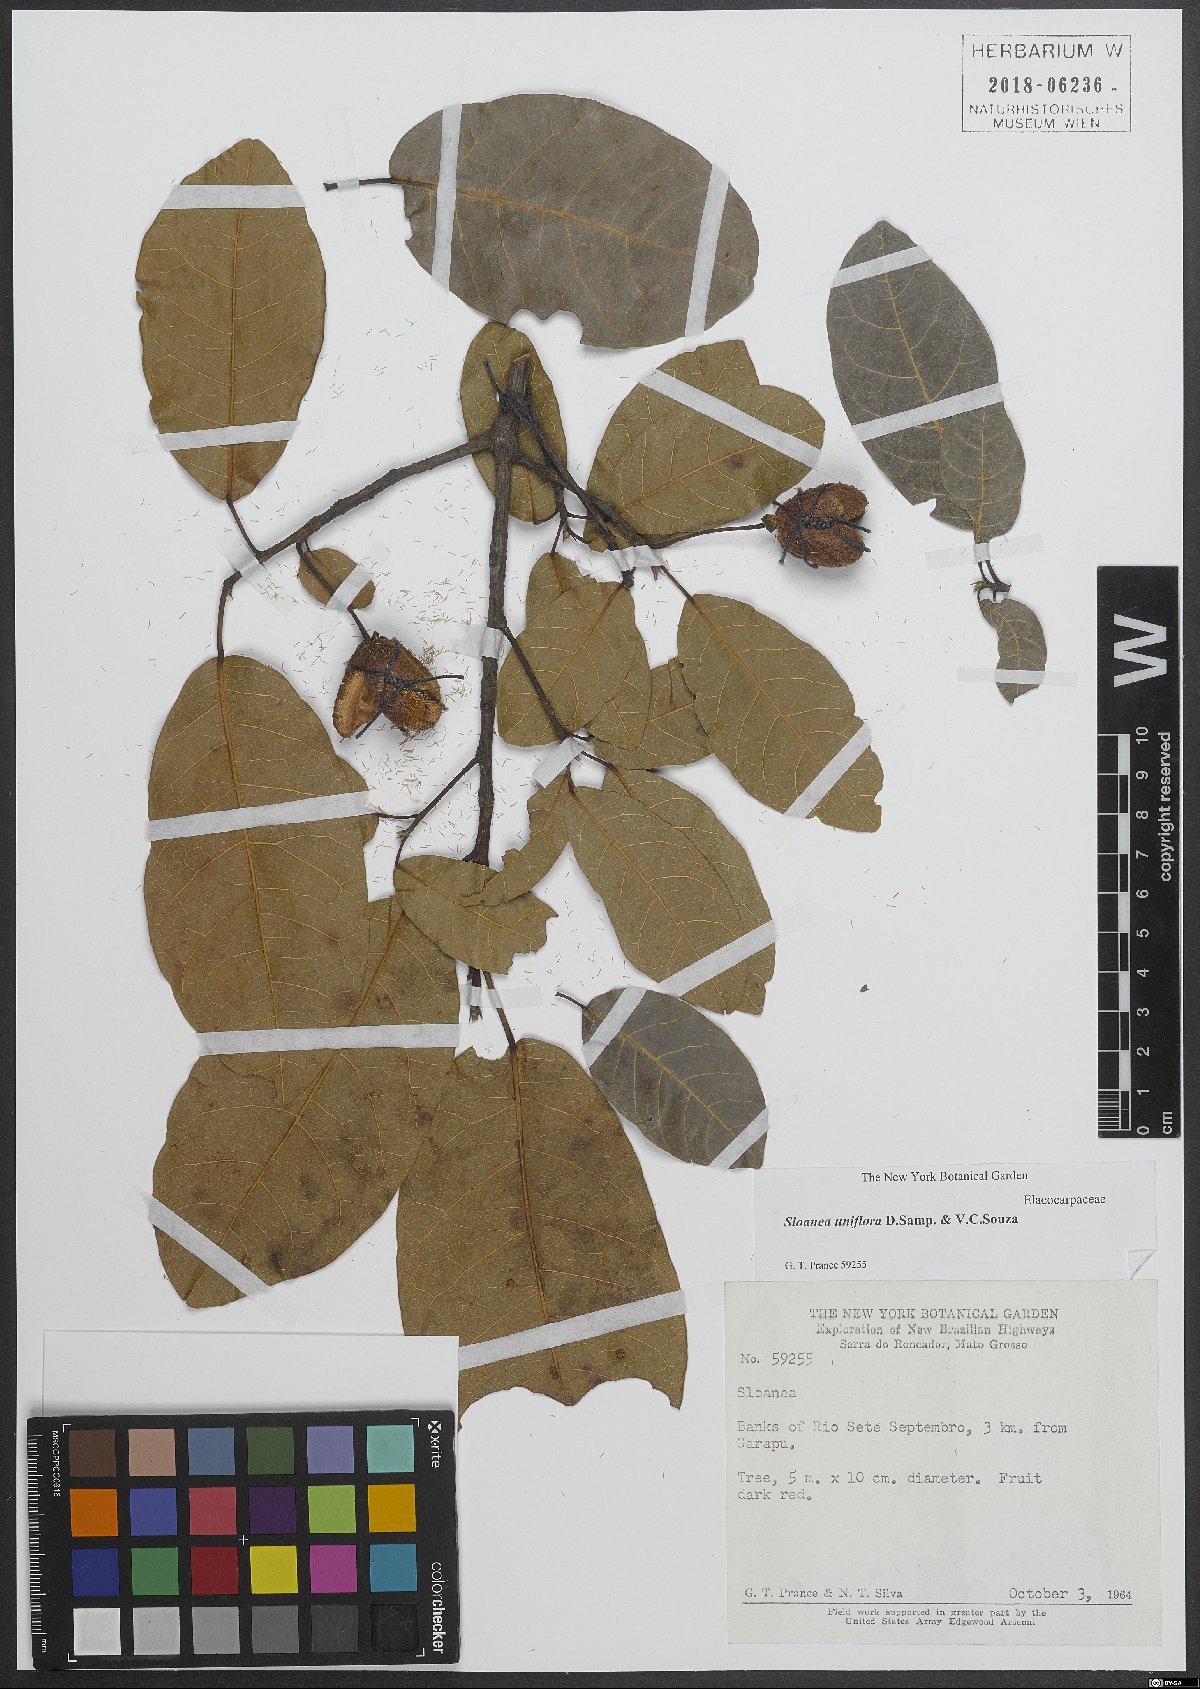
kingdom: Plantae
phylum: Tracheophyta
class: Magnoliopsida
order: Oxalidales
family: Elaeocarpaceae
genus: Sloanea
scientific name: Sloanea uniflora
